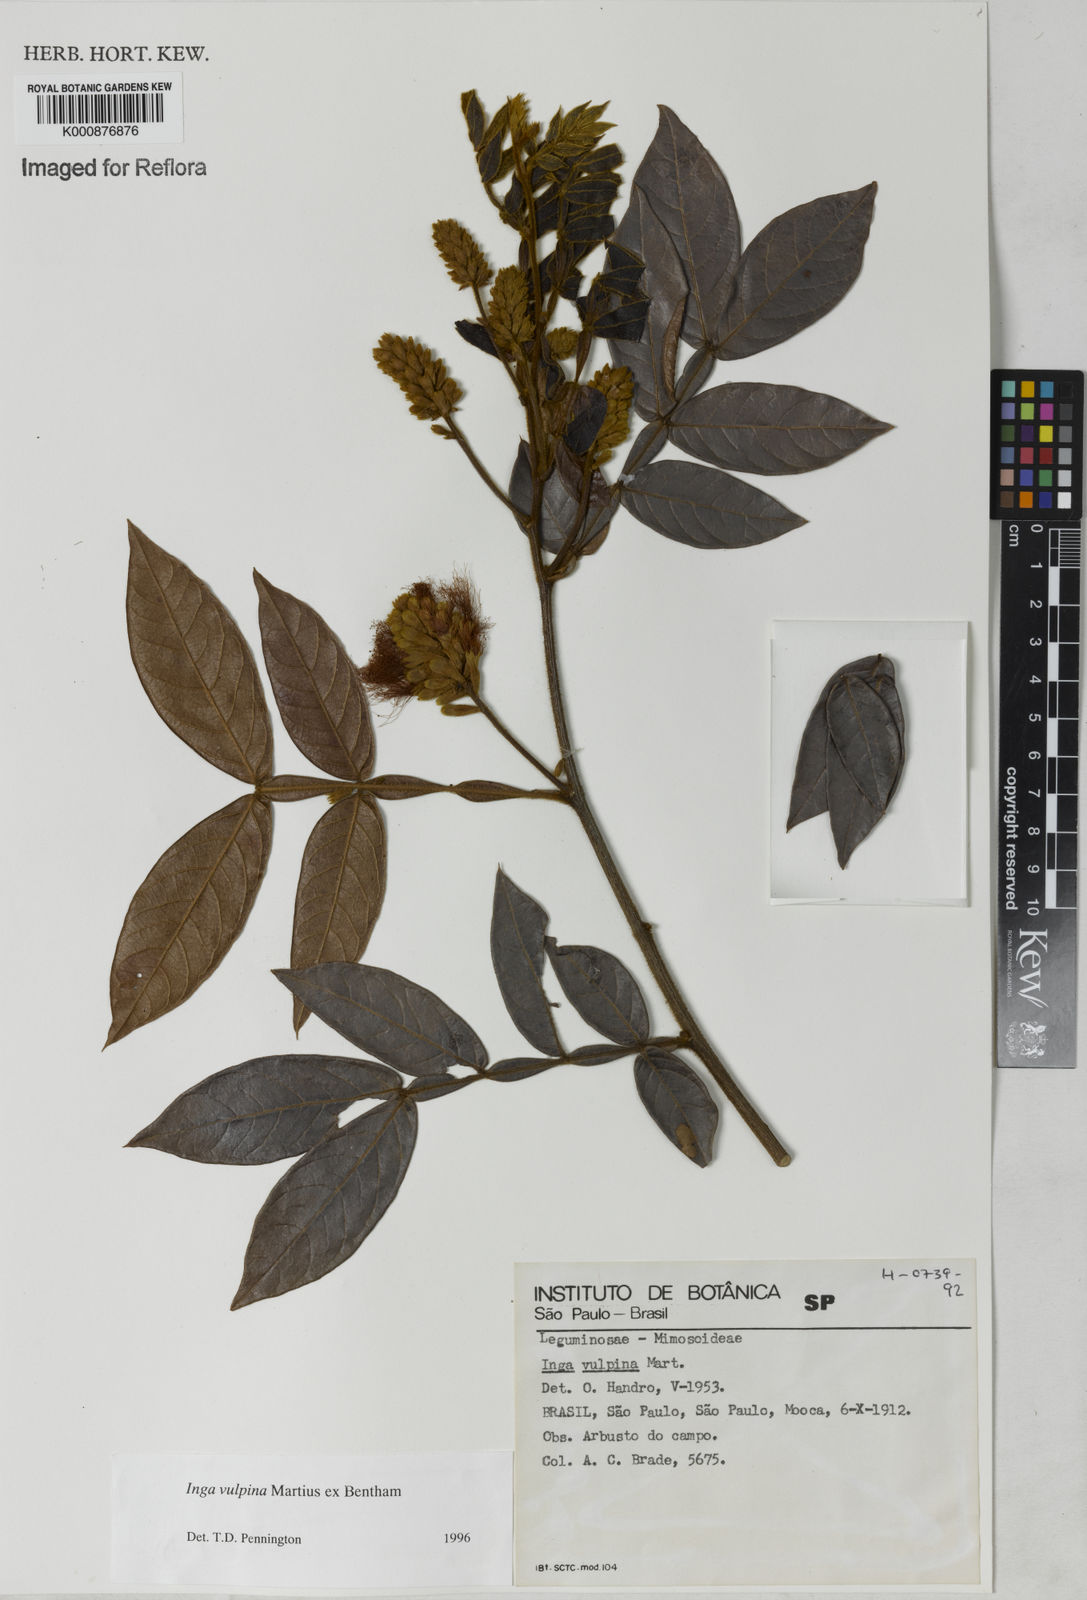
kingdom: Plantae
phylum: Tracheophyta
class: Magnoliopsida
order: Fabales
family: Fabaceae
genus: Inga
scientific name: Inga vulpina
